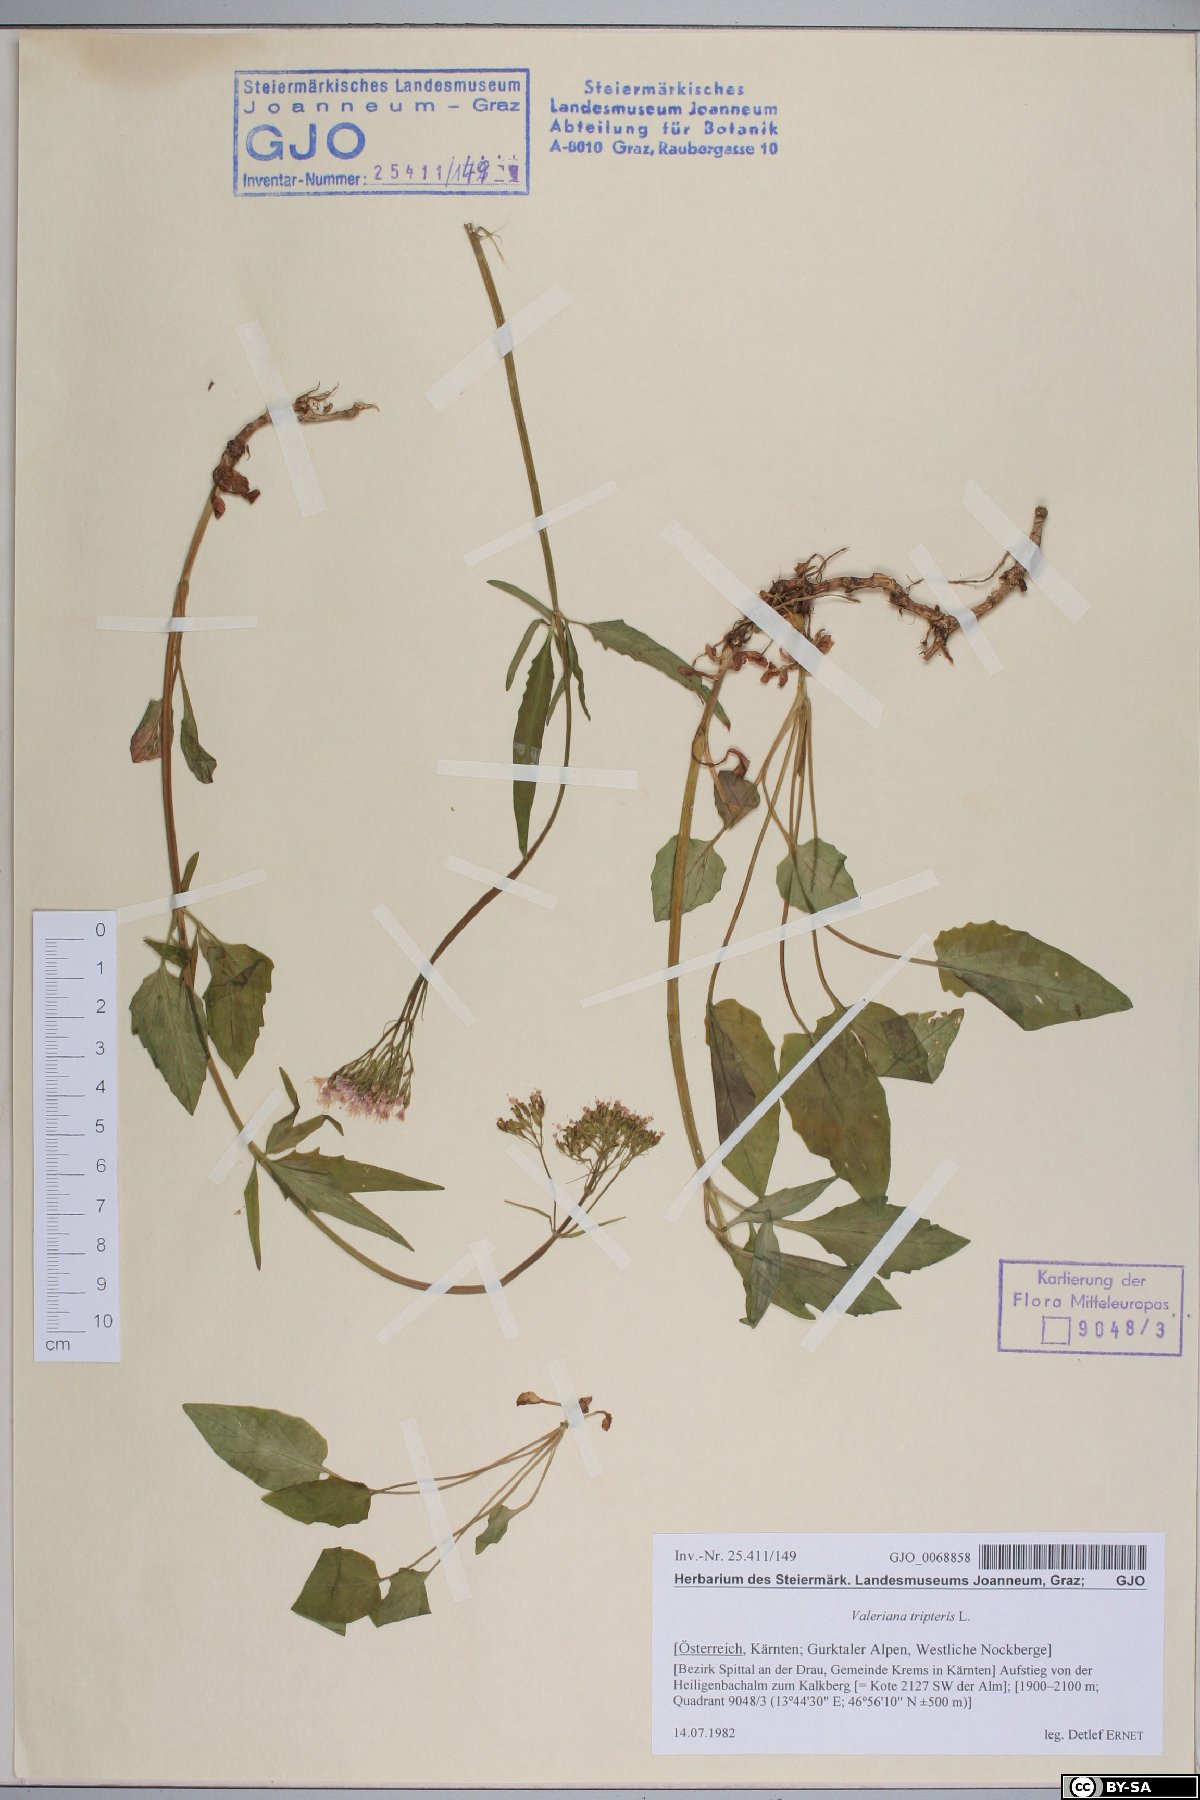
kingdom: Plantae
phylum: Tracheophyta
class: Magnoliopsida
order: Dipsacales
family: Caprifoliaceae
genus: Valeriana
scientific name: Valeriana tripteris
